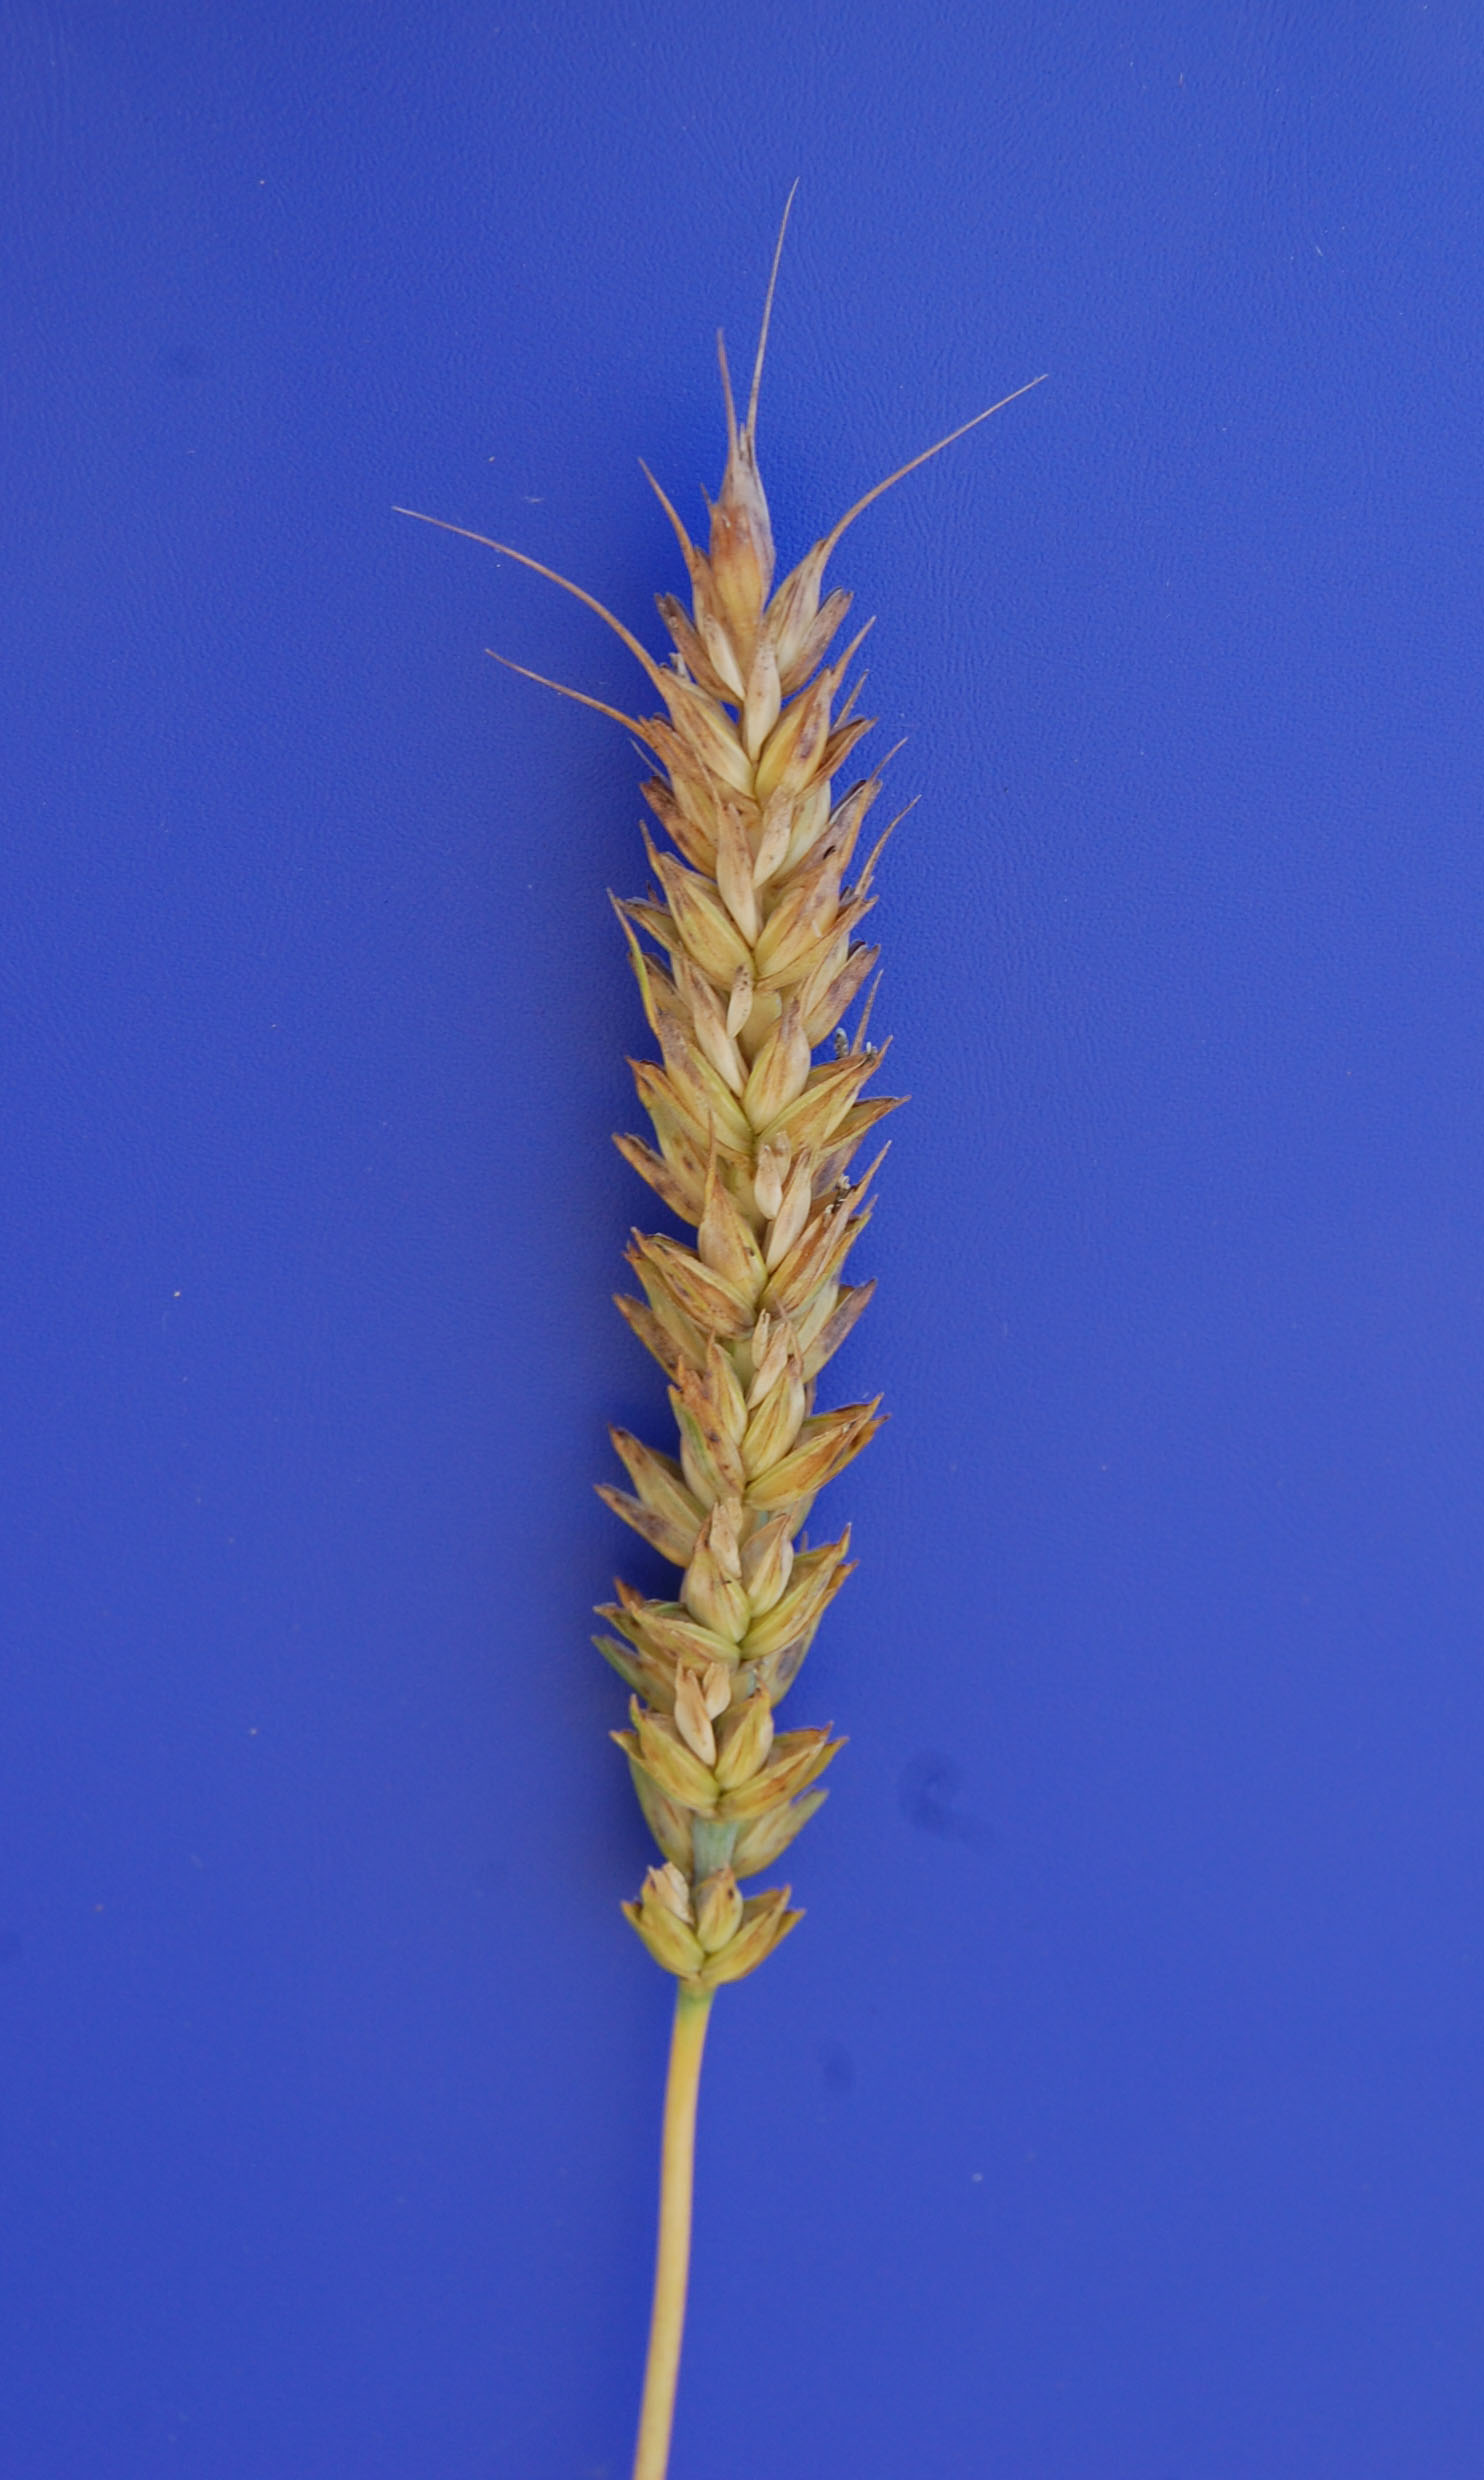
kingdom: Plantae
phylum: Tracheophyta
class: Liliopsida
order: Poales
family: Poaceae
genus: Triticum
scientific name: Triticum aestivum
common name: Common wheat
